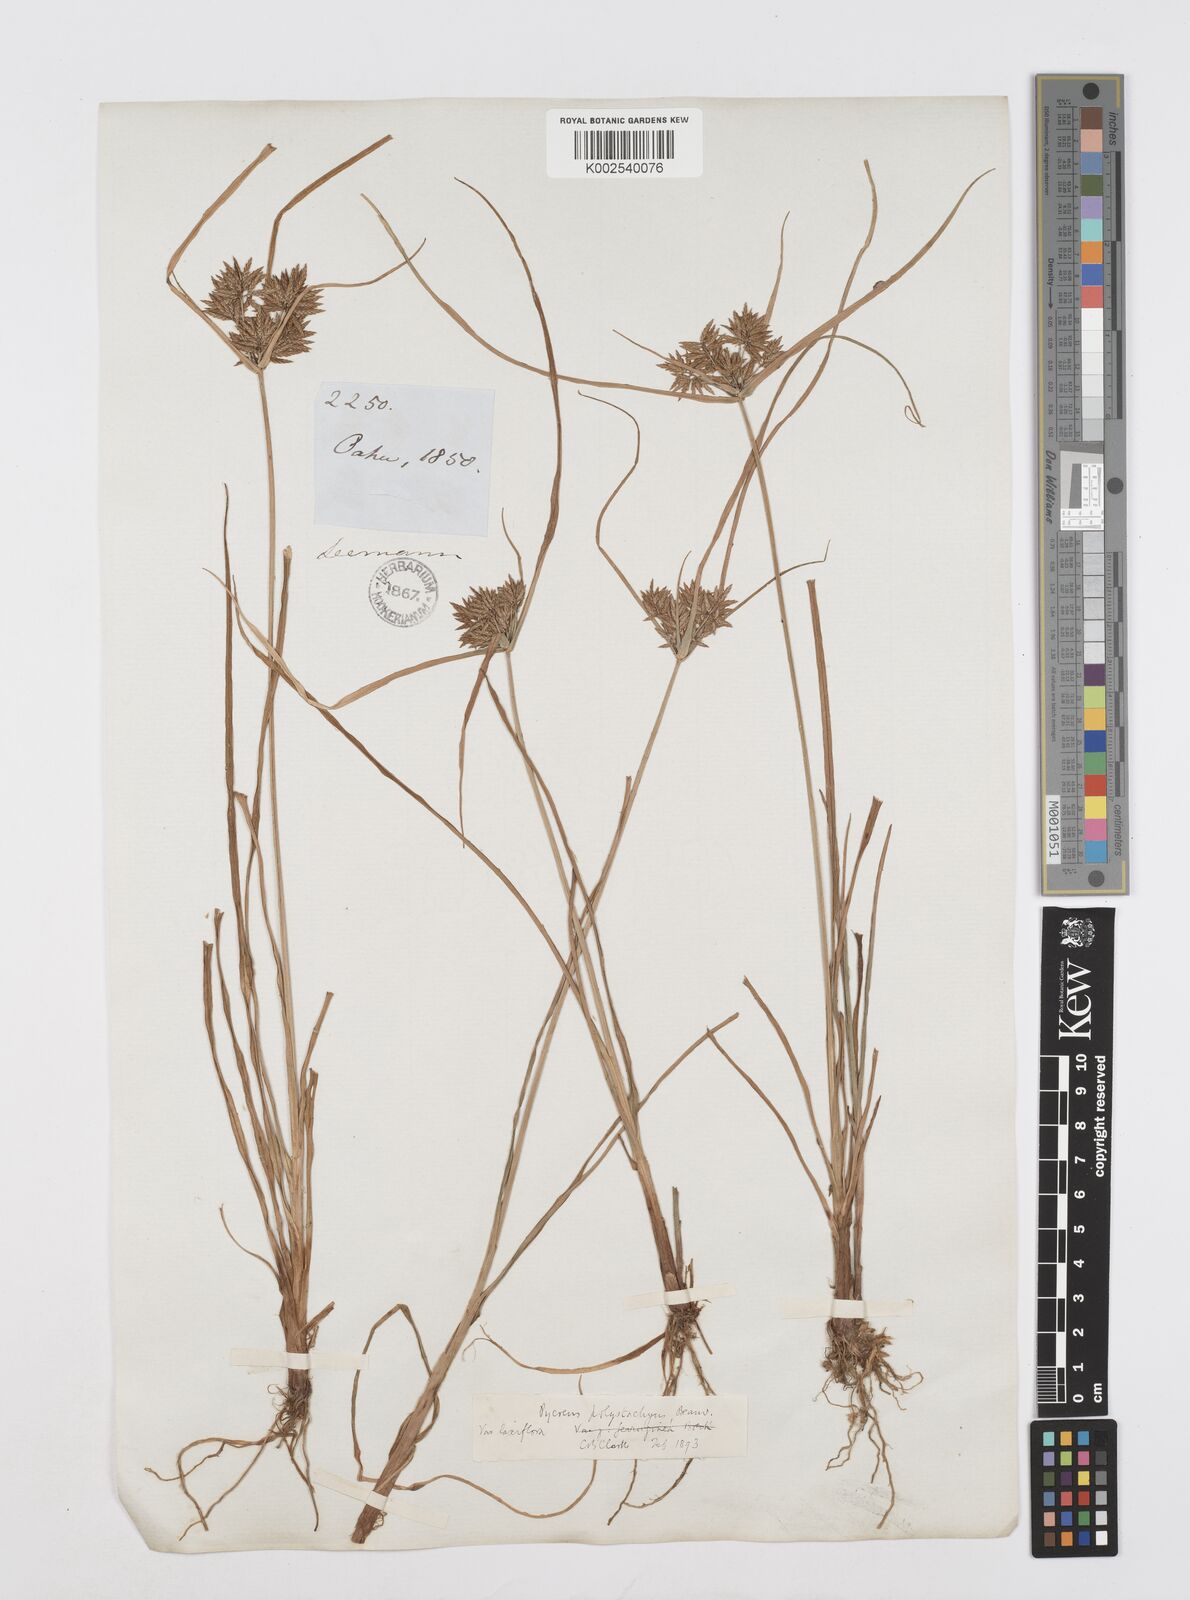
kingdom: Plantae
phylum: Tracheophyta
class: Liliopsida
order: Poales
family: Cyperaceae
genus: Cyperus
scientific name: Cyperus polystachyos
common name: Bunchy flat sedge
